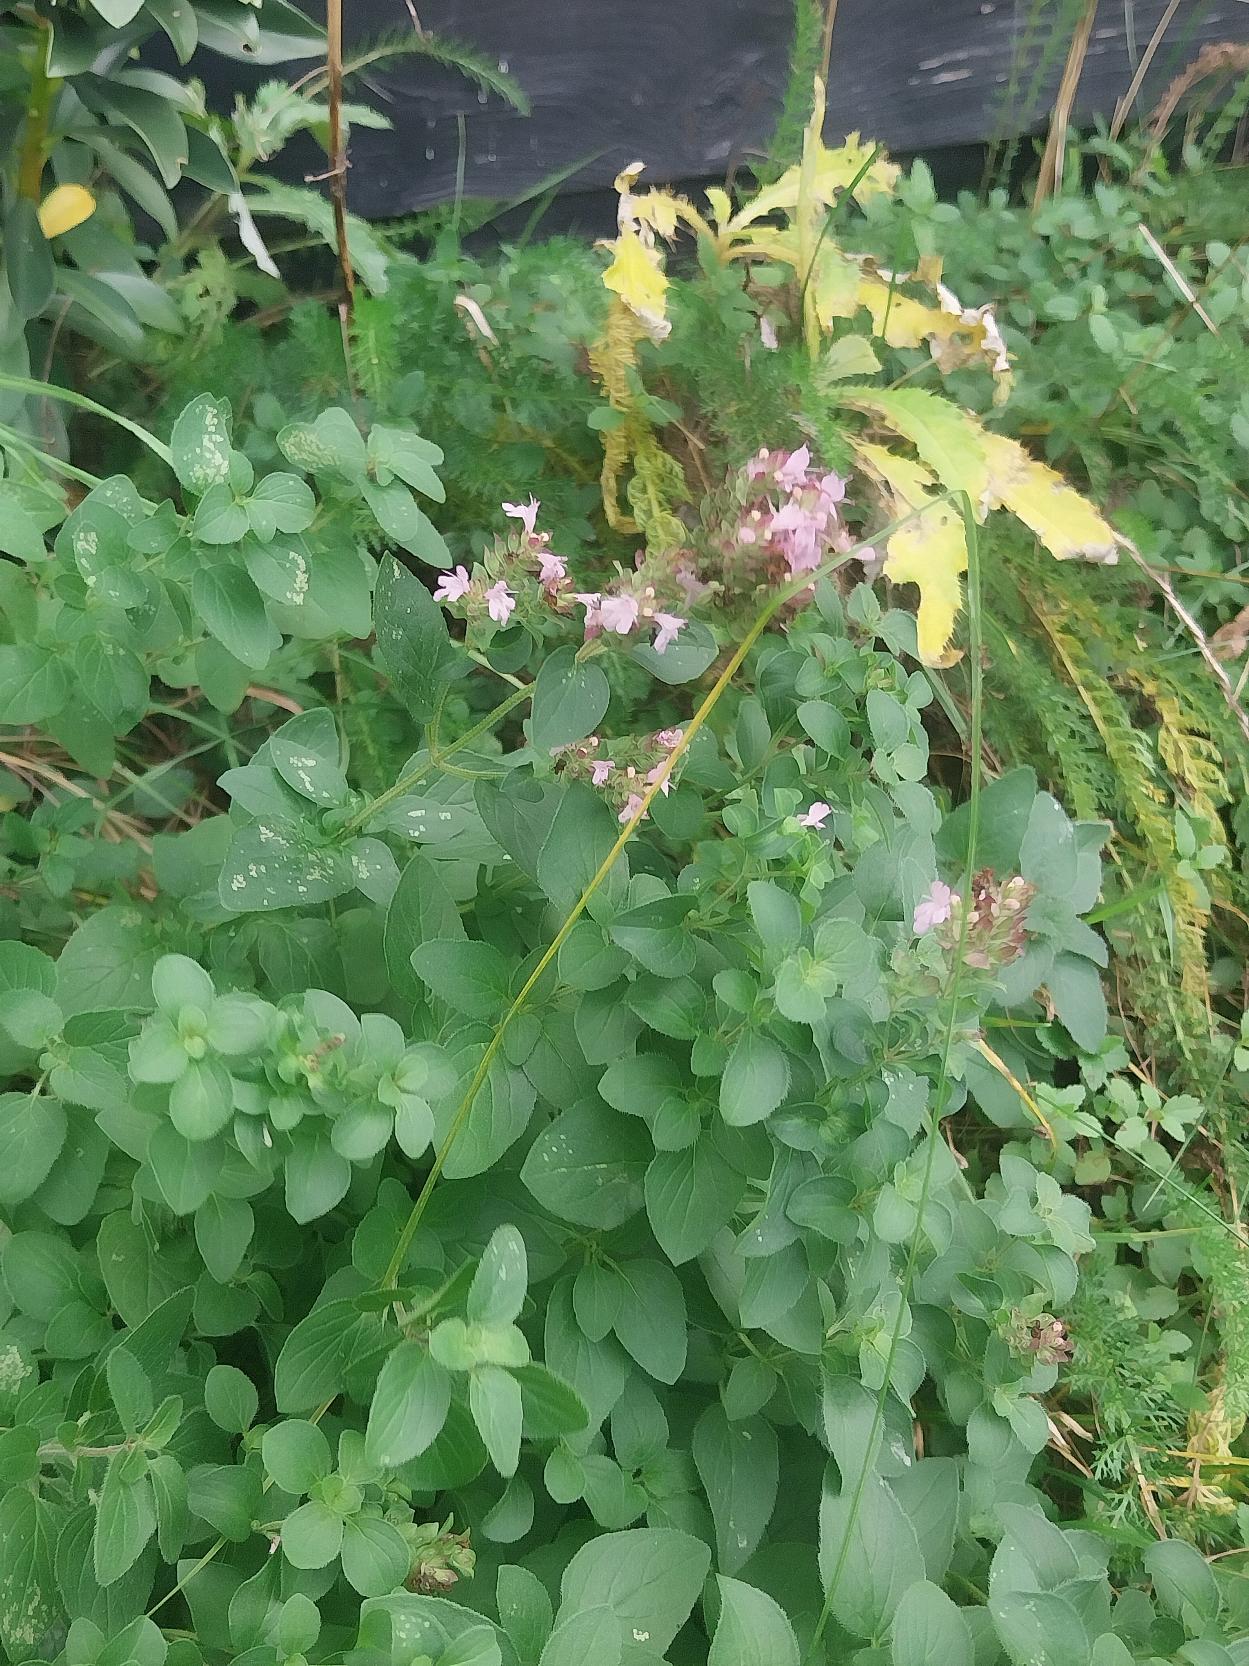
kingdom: Plantae
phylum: Tracheophyta
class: Magnoliopsida
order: Lamiales
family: Lamiaceae
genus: Origanum
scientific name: Origanum vulgare
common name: Merian
